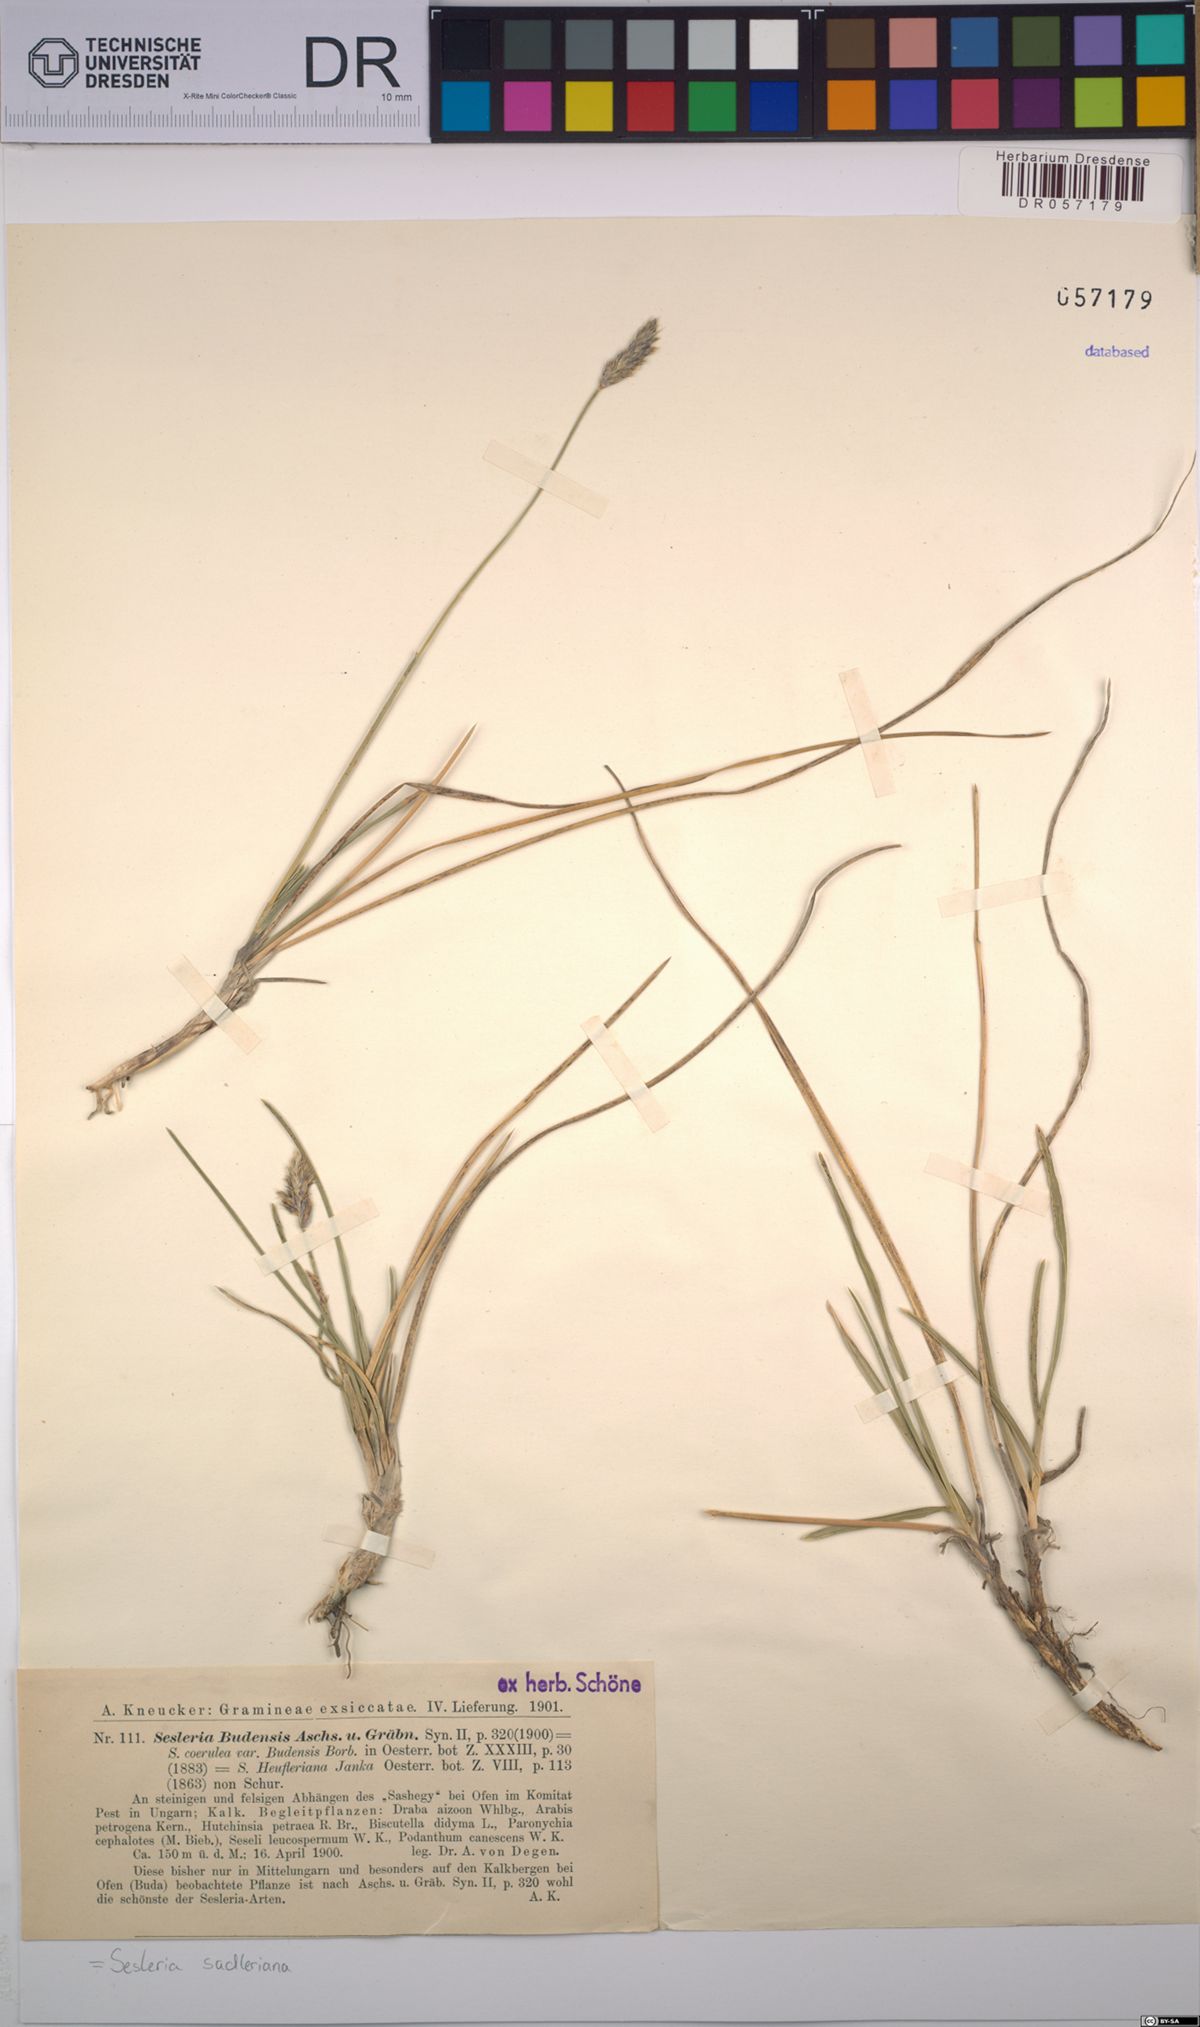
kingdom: Plantae
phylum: Tracheophyta
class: Liliopsida
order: Poales
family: Poaceae
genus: Sesleria
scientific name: Sesleria sadleriana
